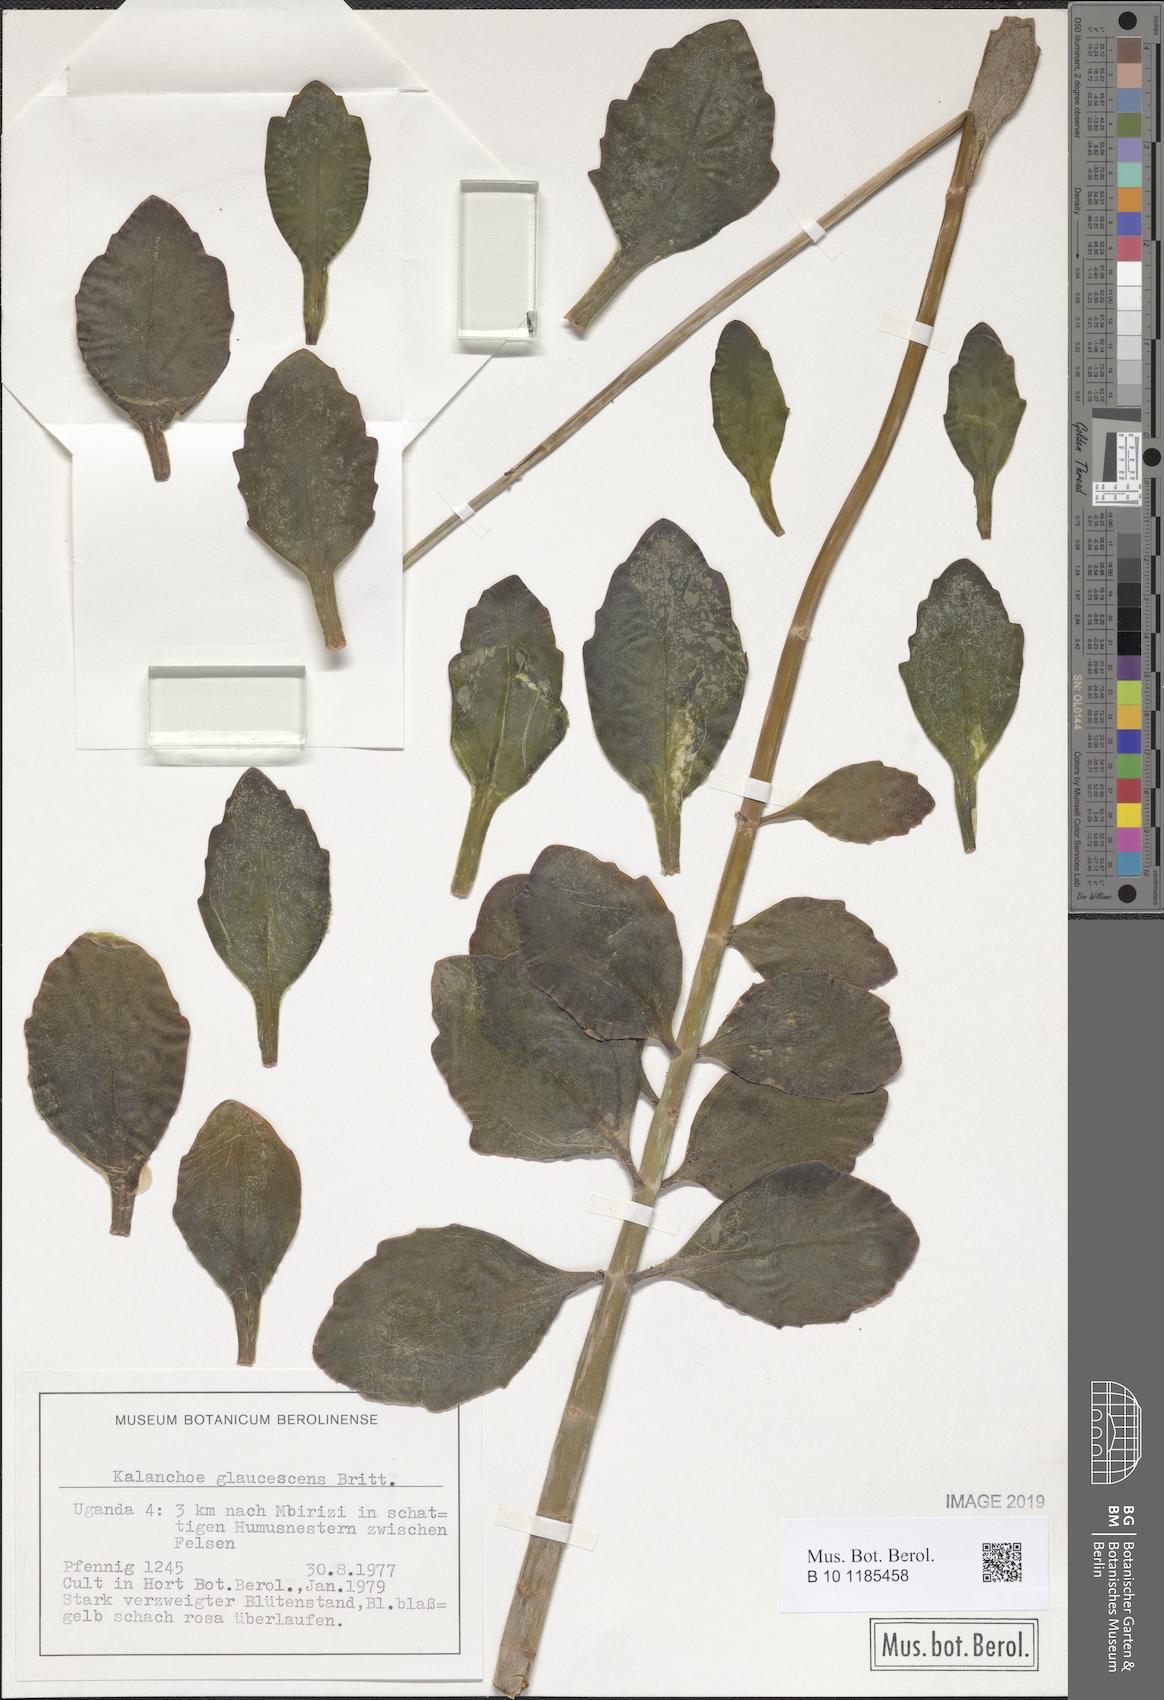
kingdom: Plantae
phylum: Tracheophyta
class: Magnoliopsida
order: Saxifragales
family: Crassulaceae
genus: Kalanchoe
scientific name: Kalanchoe glaucescens
